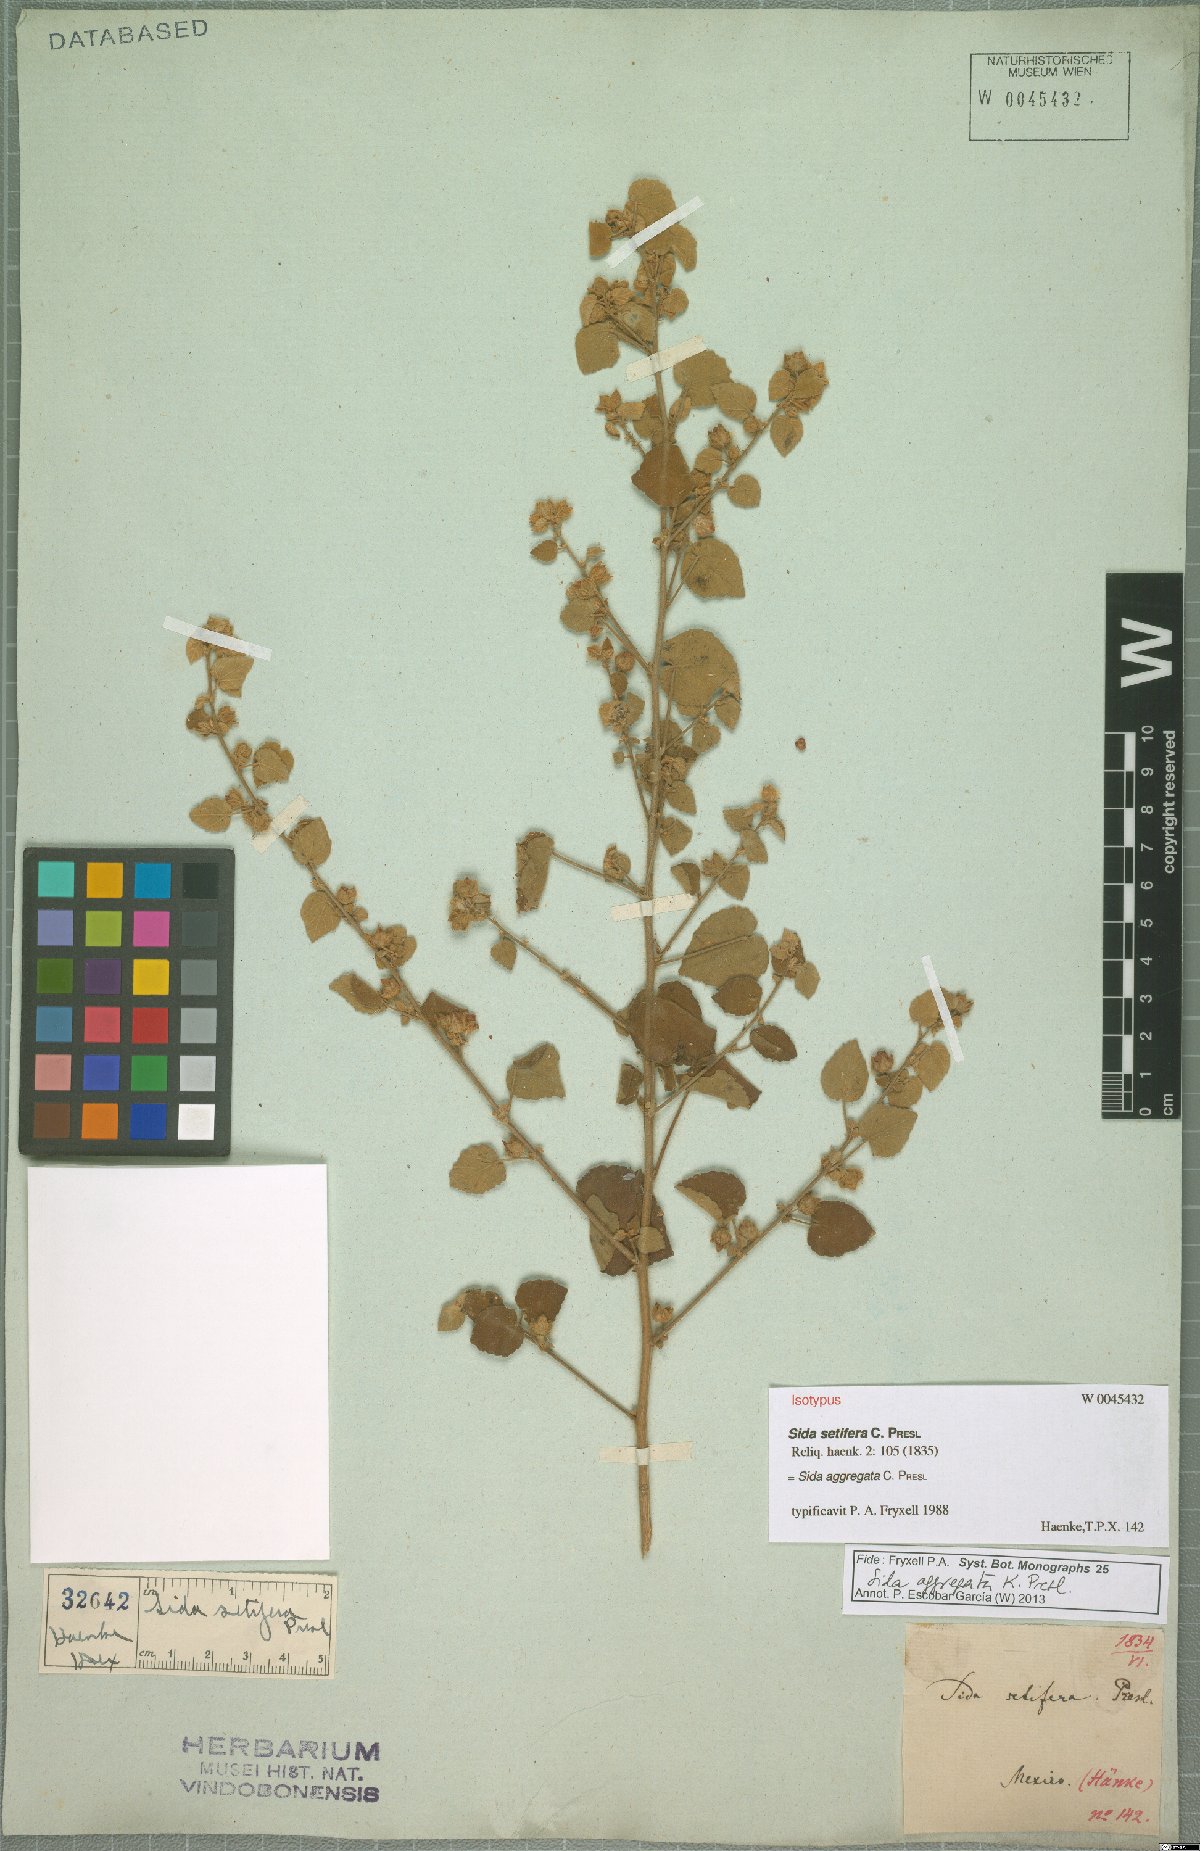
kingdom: Plantae
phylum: Tracheophyta
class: Magnoliopsida
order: Malvales
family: Malvaceae
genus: Sida
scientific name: Sida aggregata
